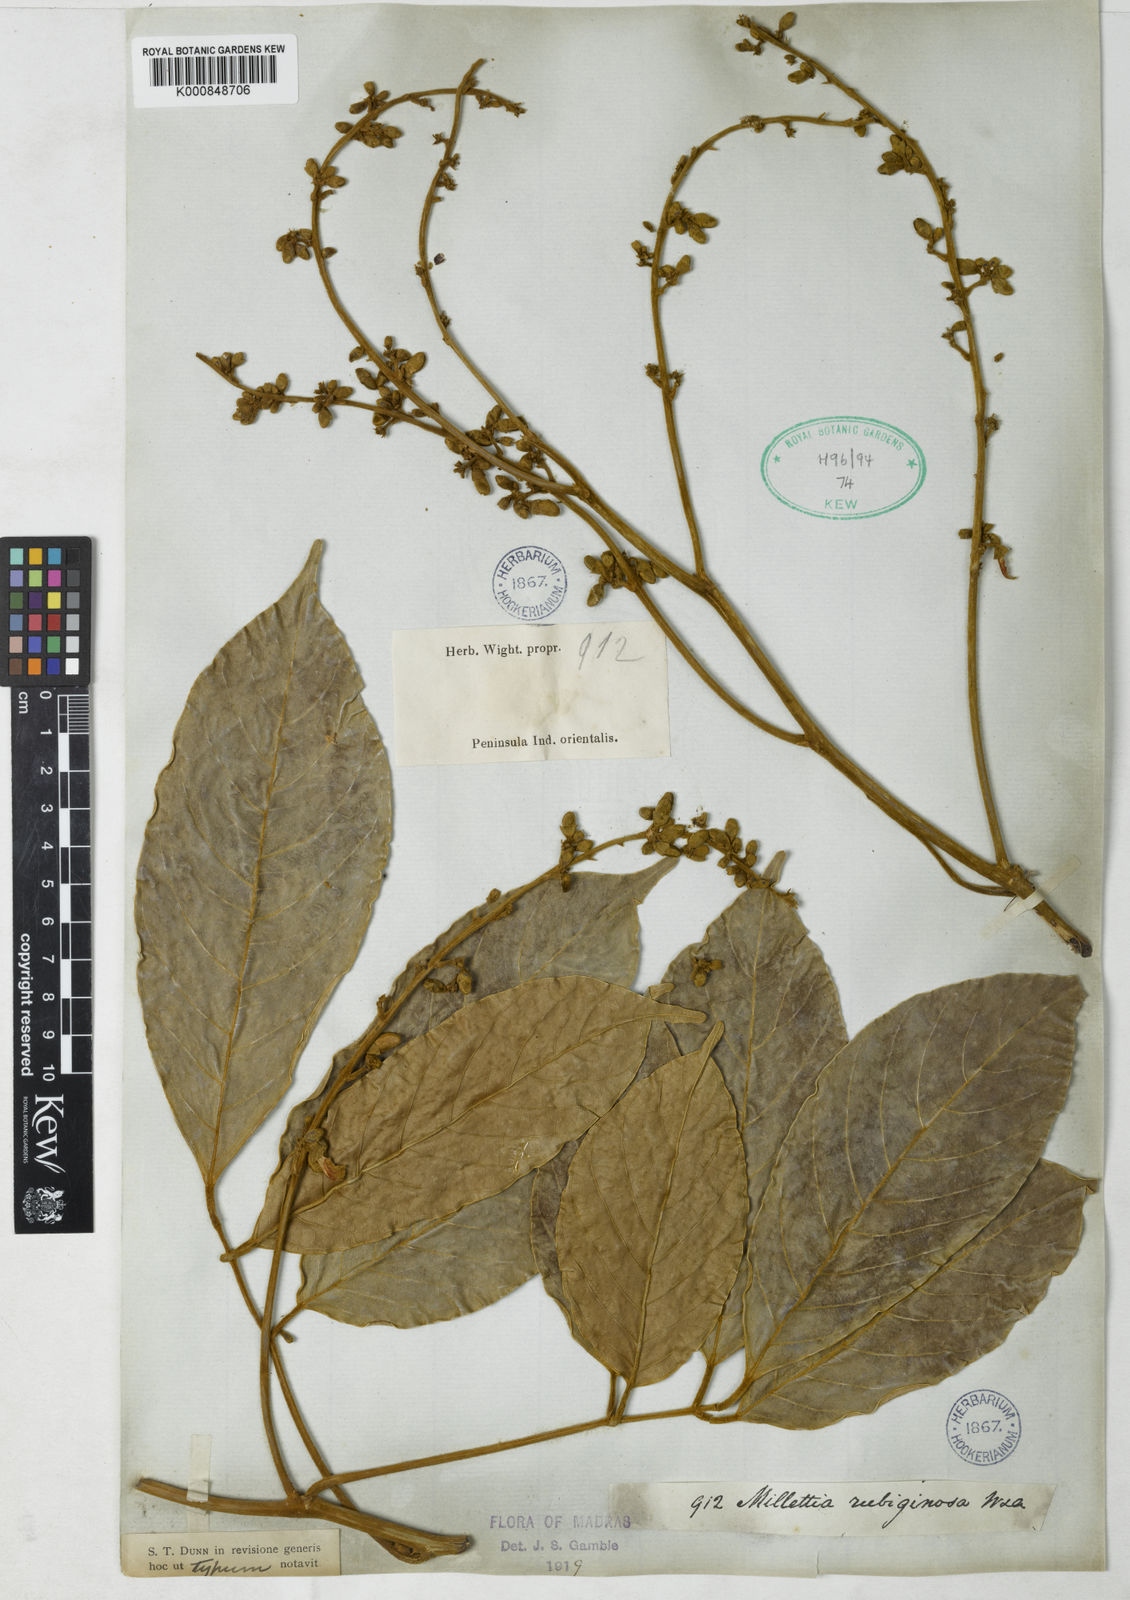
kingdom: Plantae
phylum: Tracheophyta
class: Magnoliopsida
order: Fabales
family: Fabaceae
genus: Millettia
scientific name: Millettia rubiginosa
